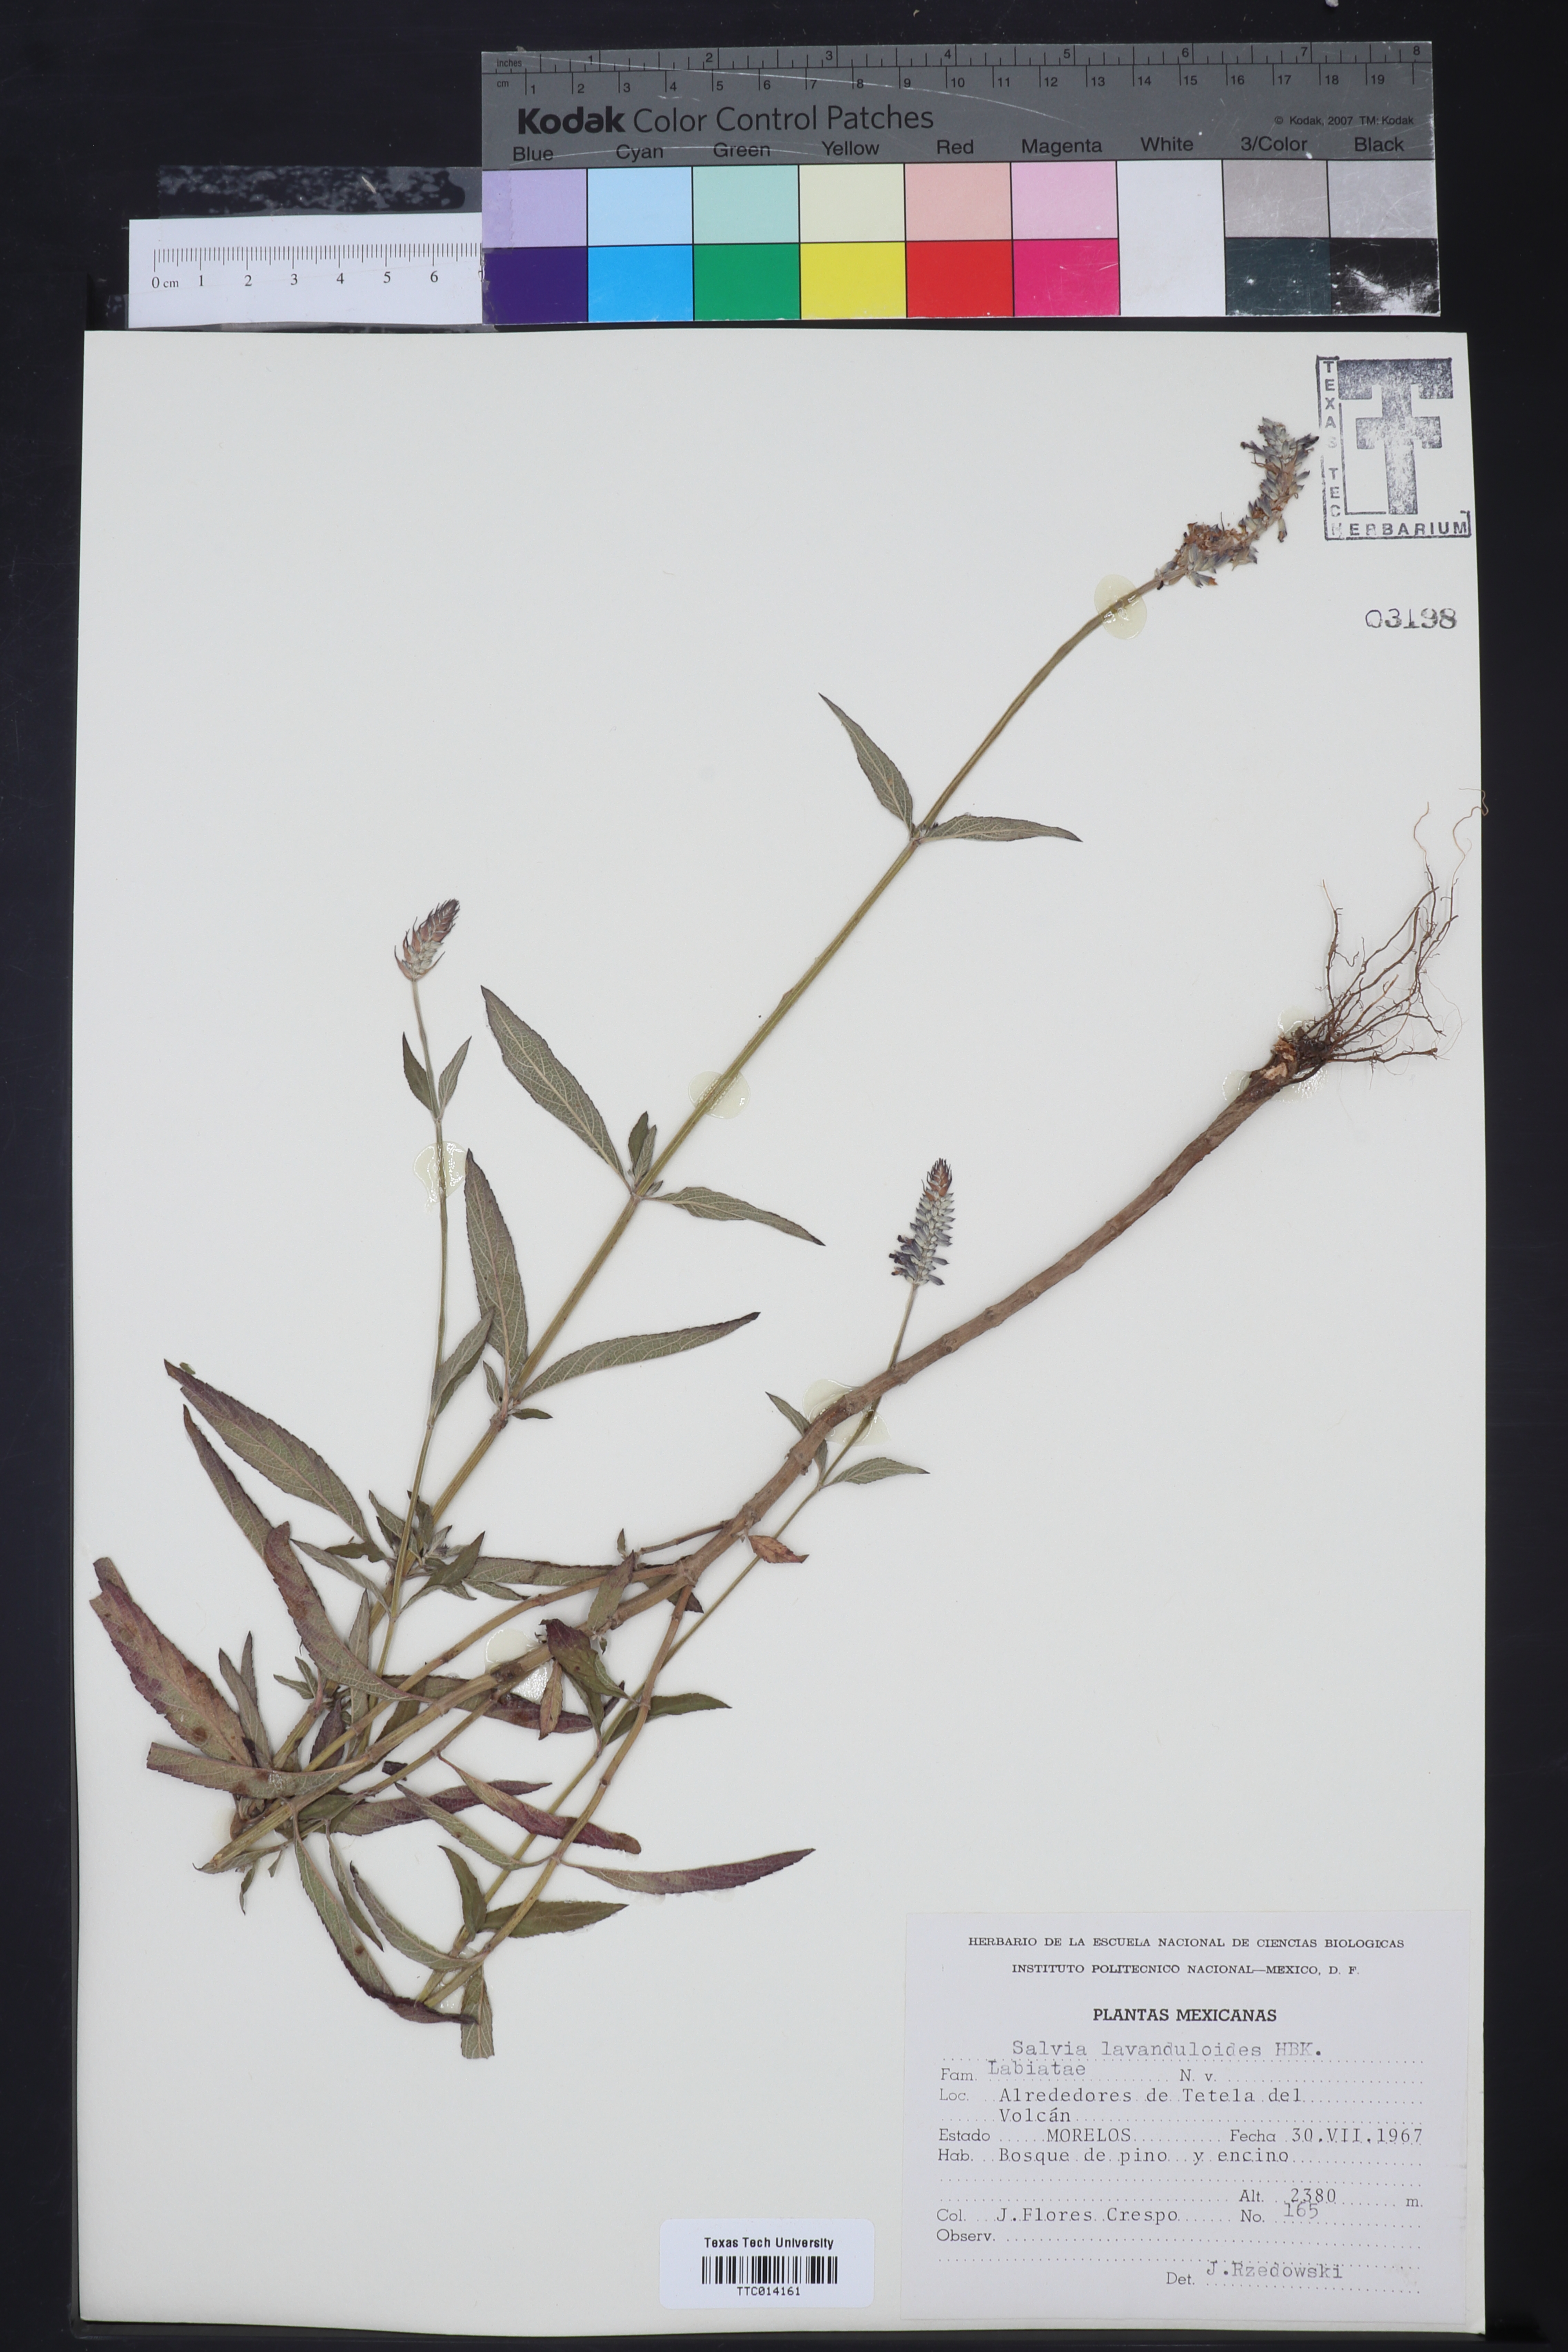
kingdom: Plantae
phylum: Tracheophyta
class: Magnoliopsida
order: Lamiales
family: Lamiaceae
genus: Salvia
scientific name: Salvia lavanduloides
